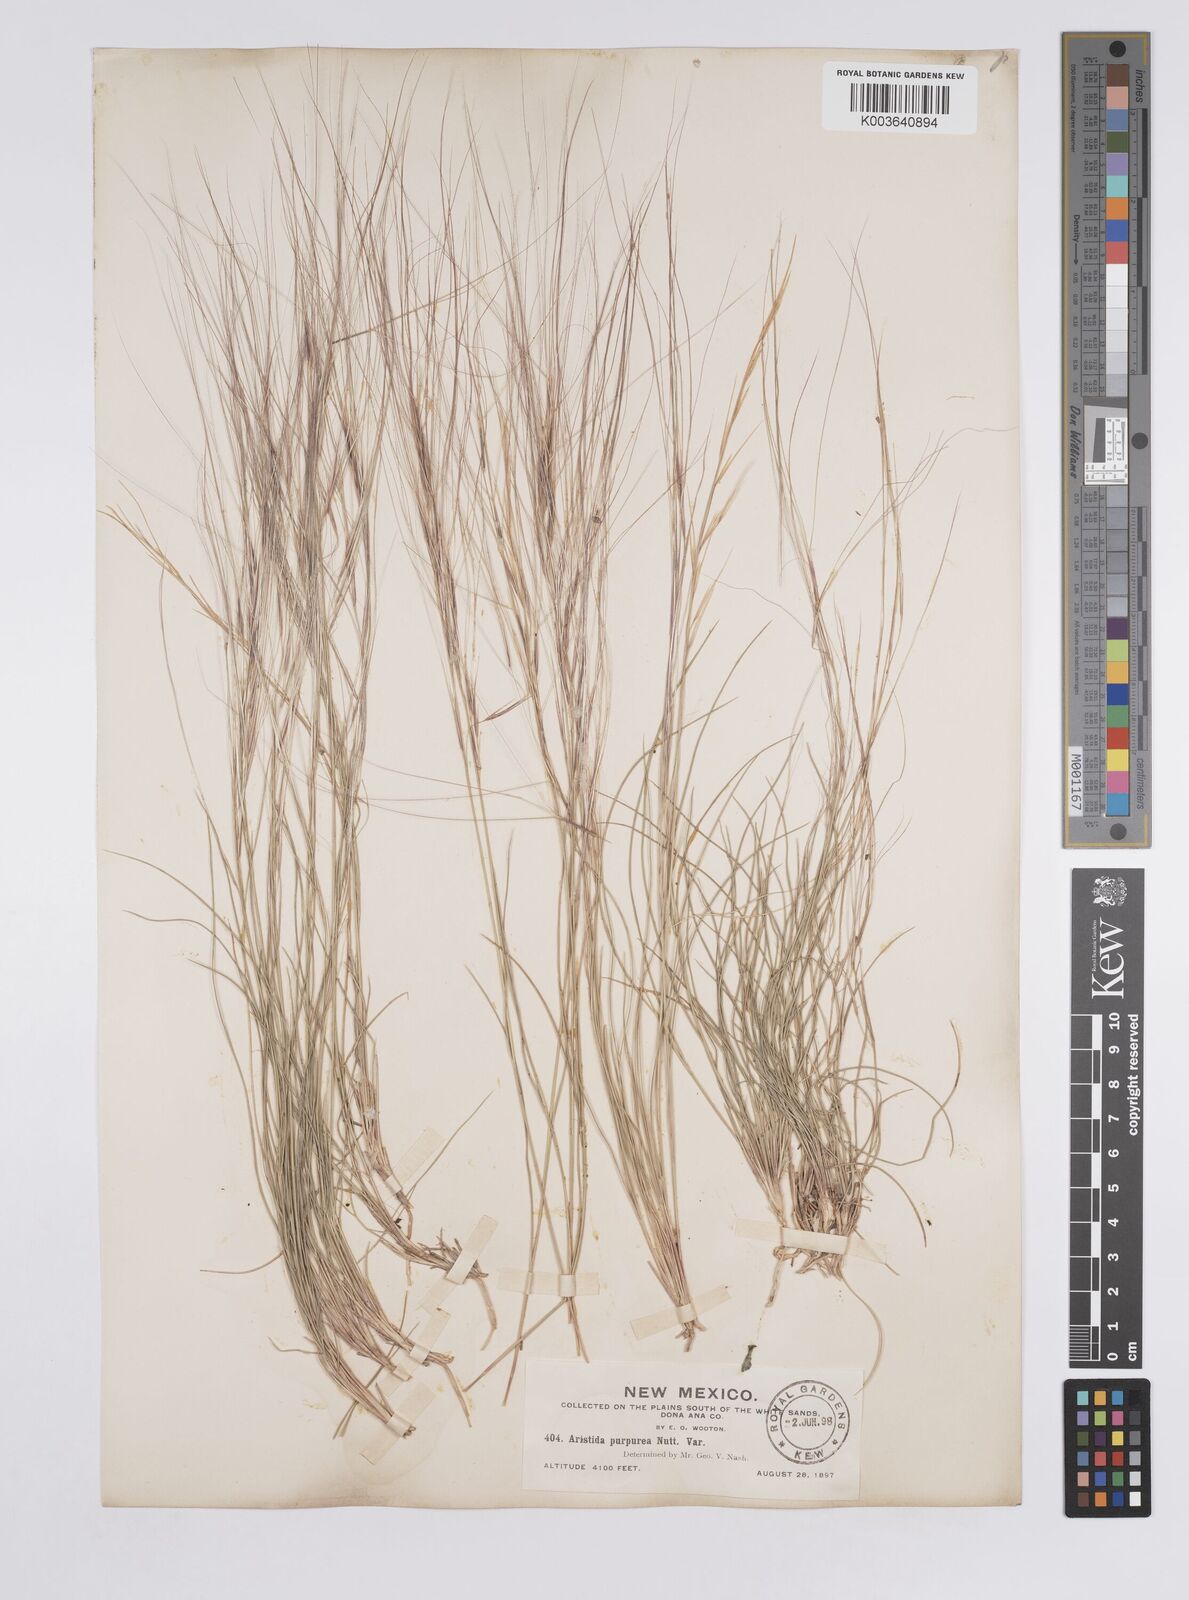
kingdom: Plantae
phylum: Tracheophyta
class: Liliopsida
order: Poales
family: Poaceae
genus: Aristida
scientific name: Aristida purpurea
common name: Purple threeawn
